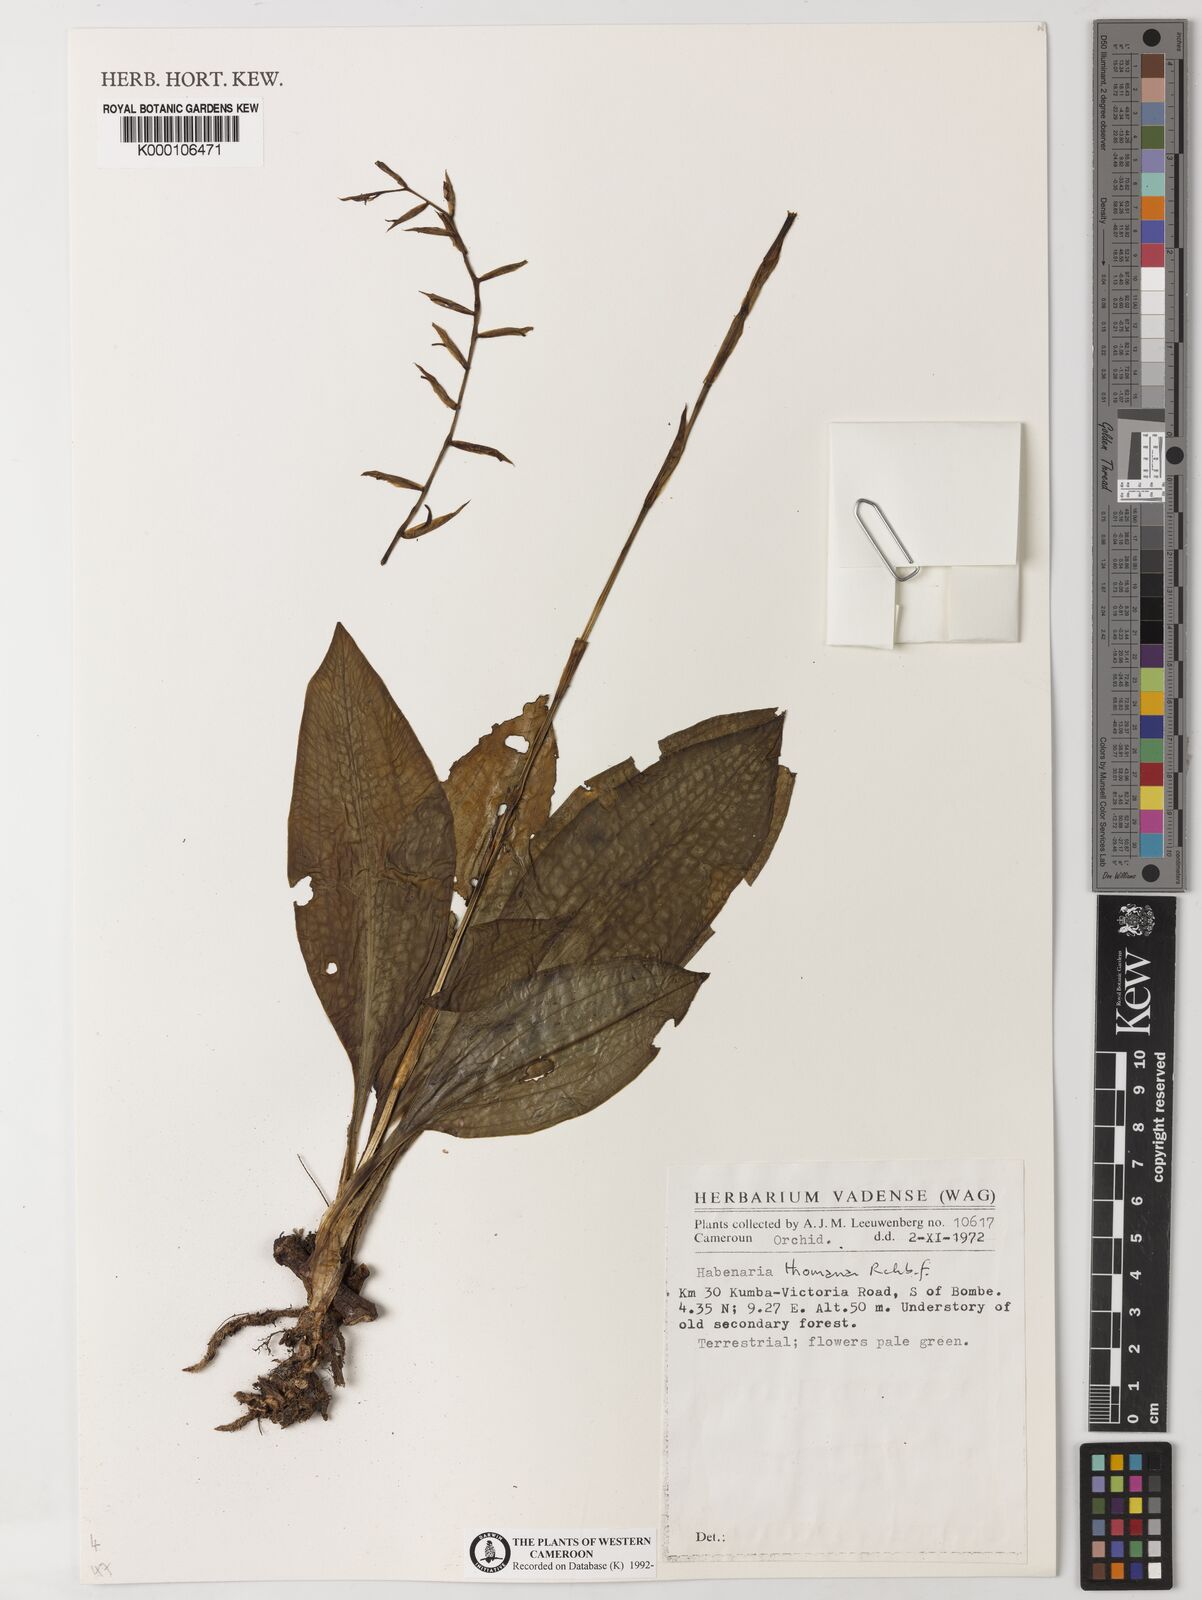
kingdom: Plantae
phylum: Tracheophyta
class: Liliopsida
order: Asparagales
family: Orchidaceae
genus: Habenaria
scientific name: Habenaria thomana
